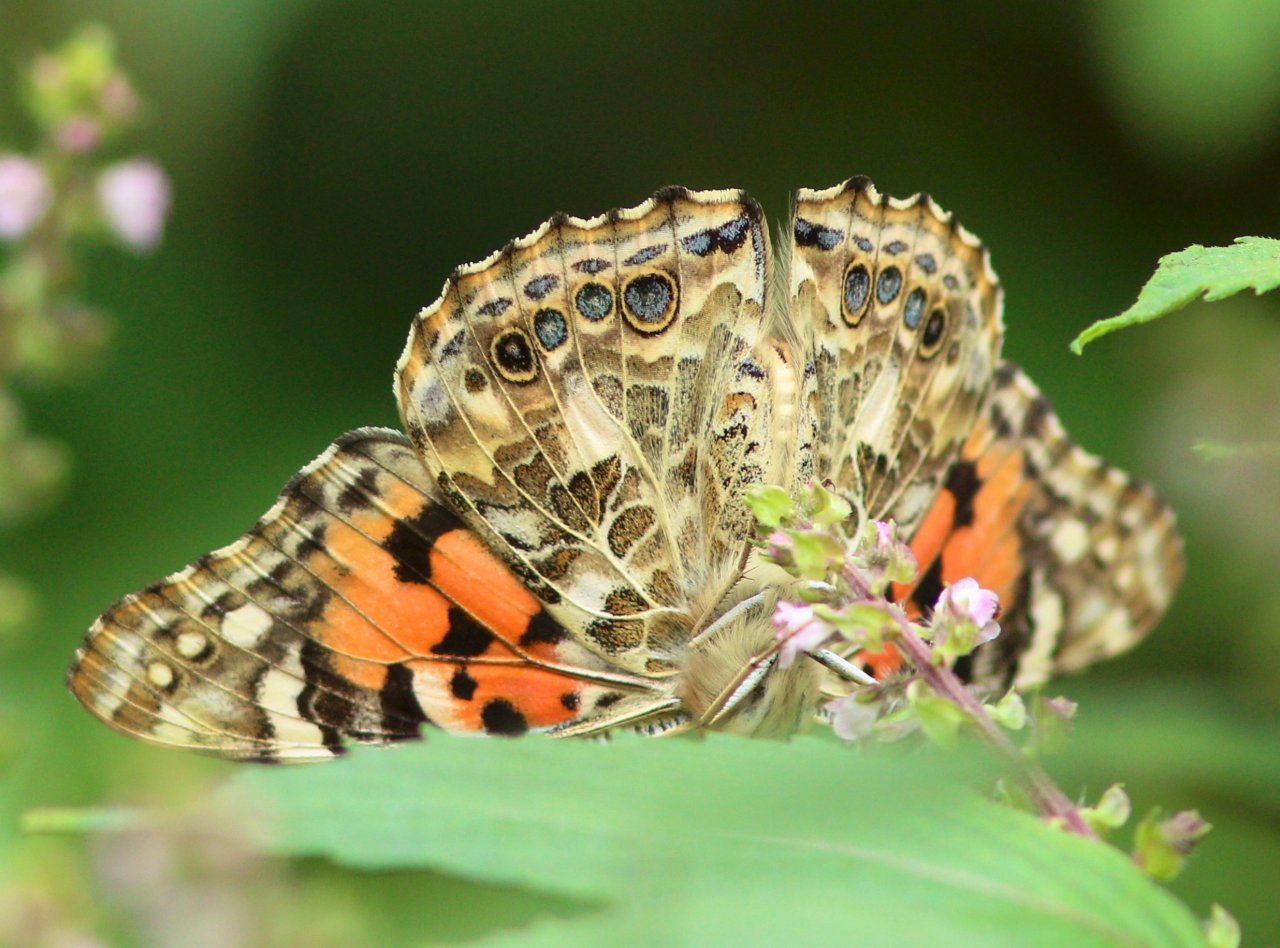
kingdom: Animalia
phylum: Arthropoda
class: Insecta
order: Lepidoptera
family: Nymphalidae
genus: Vanessa
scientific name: Vanessa cardui
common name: Painted Lady
